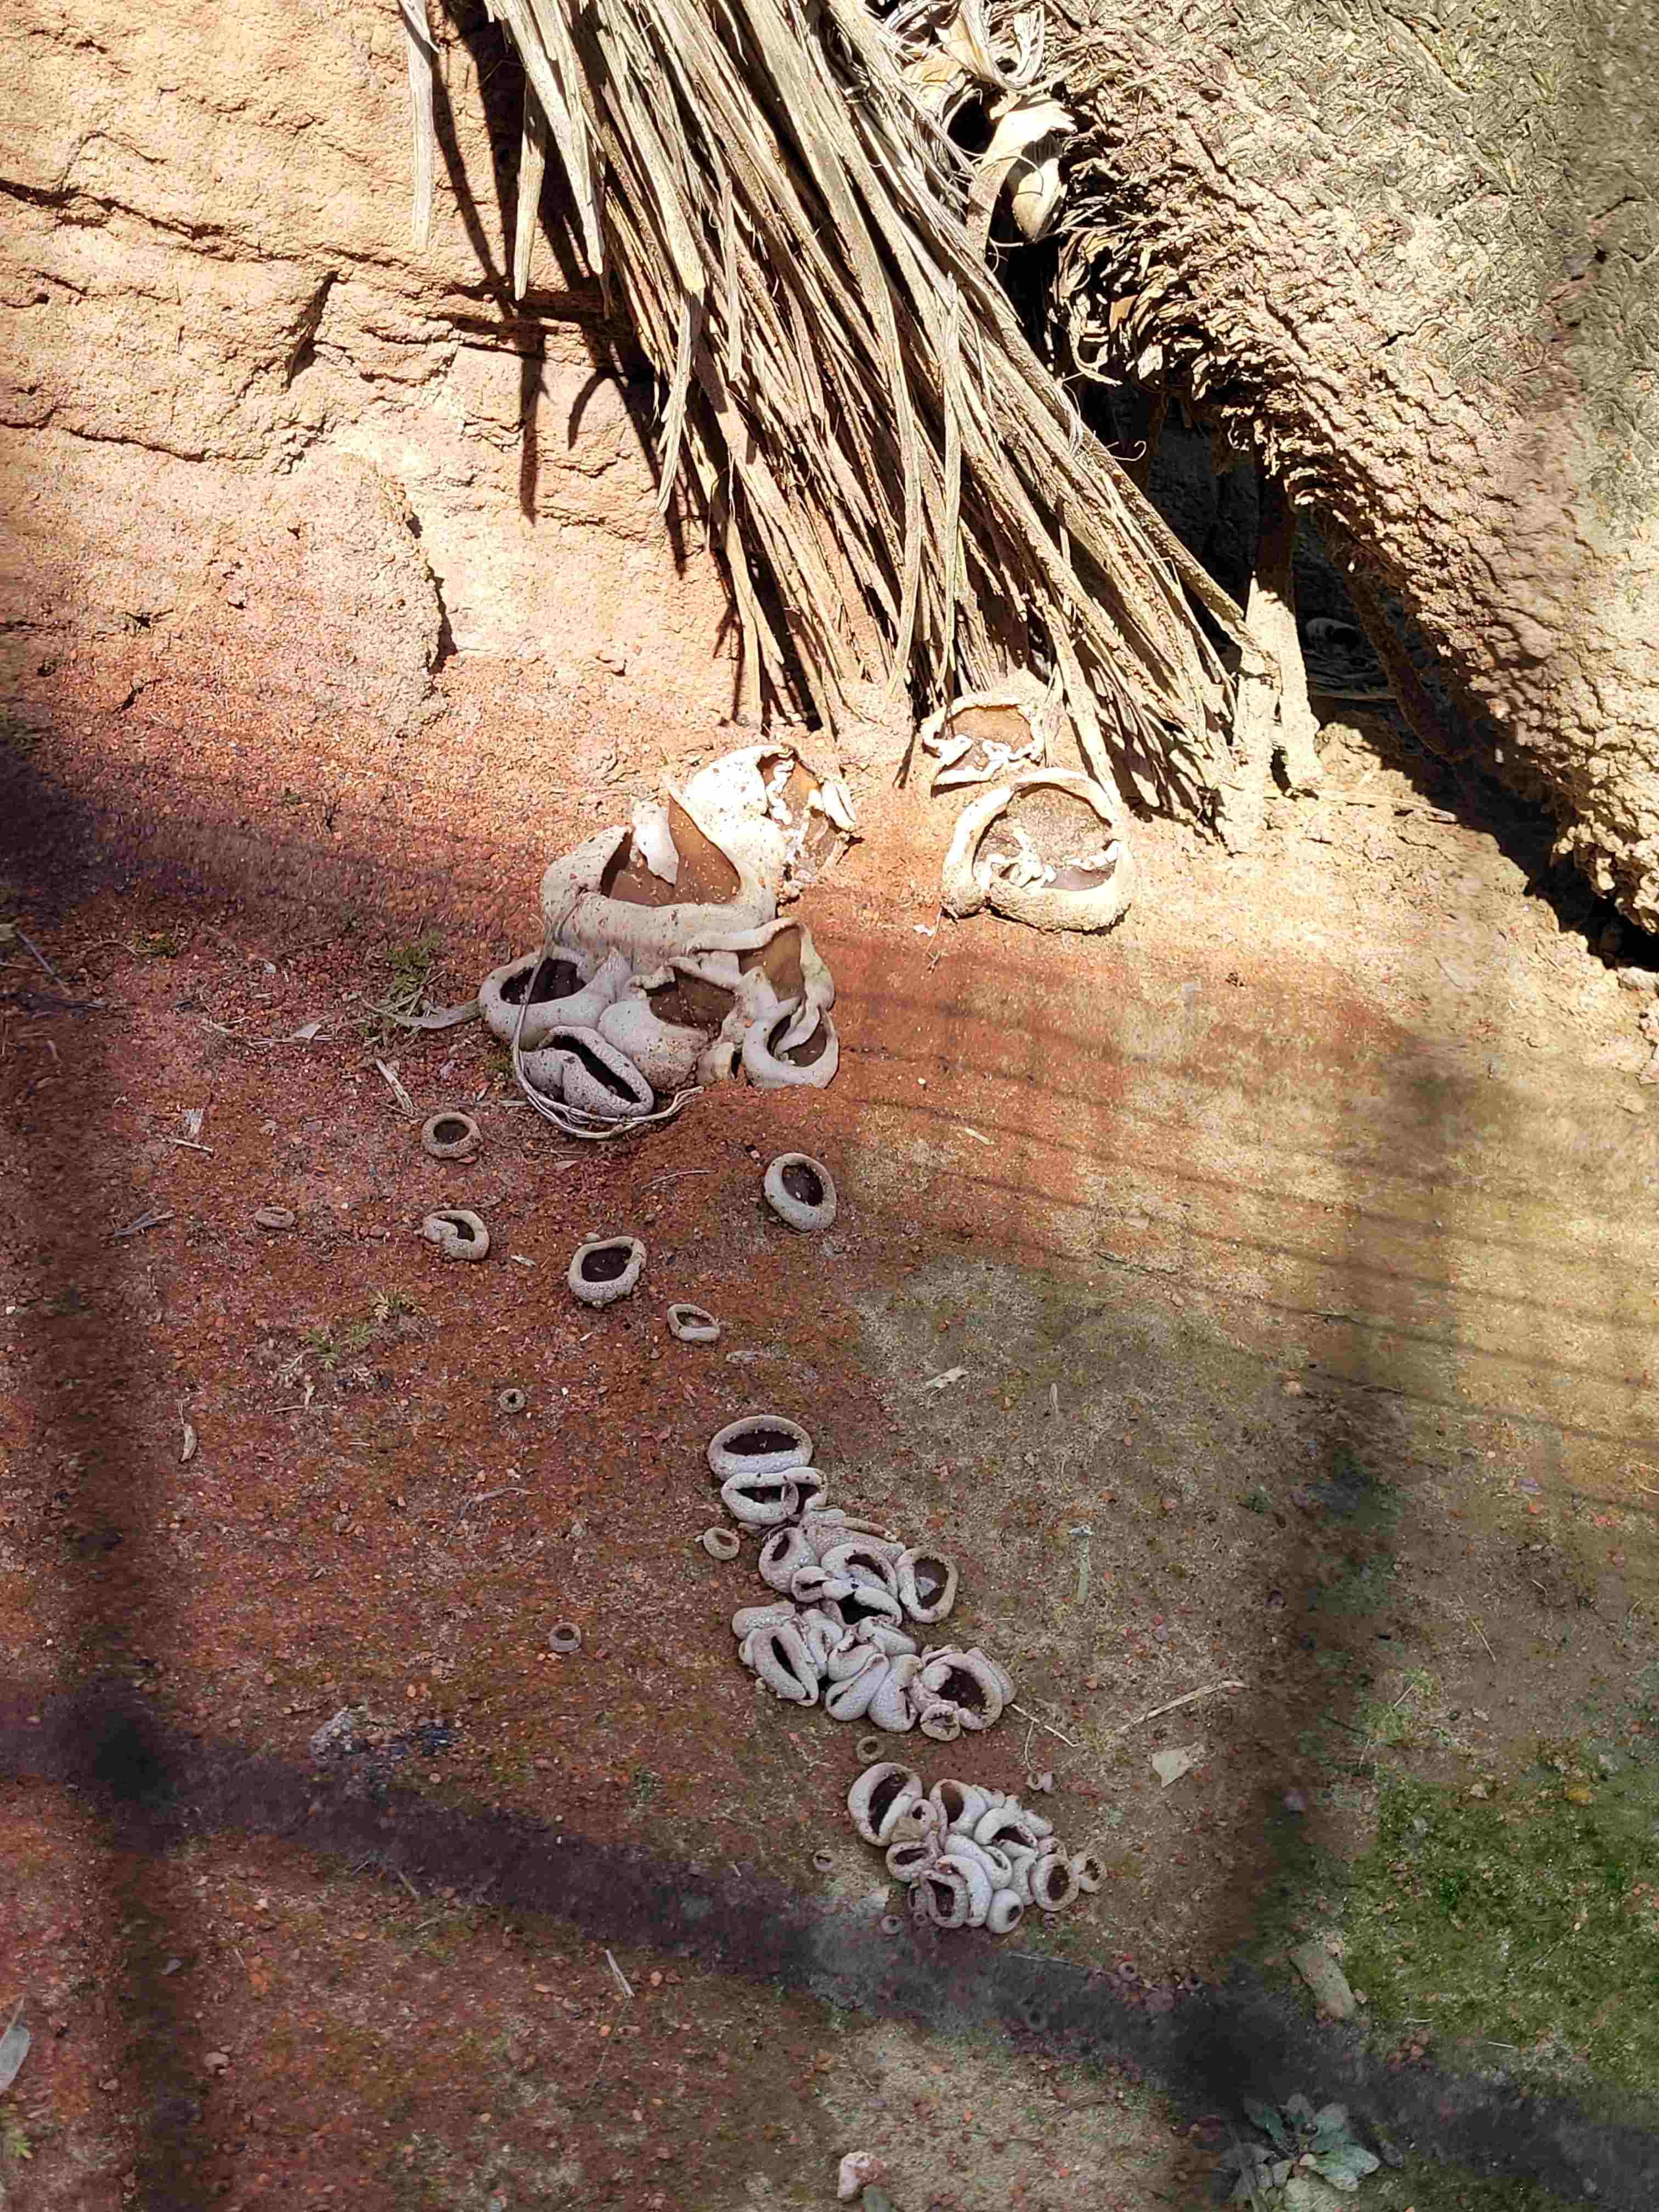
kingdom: Fungi
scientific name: Fungi
